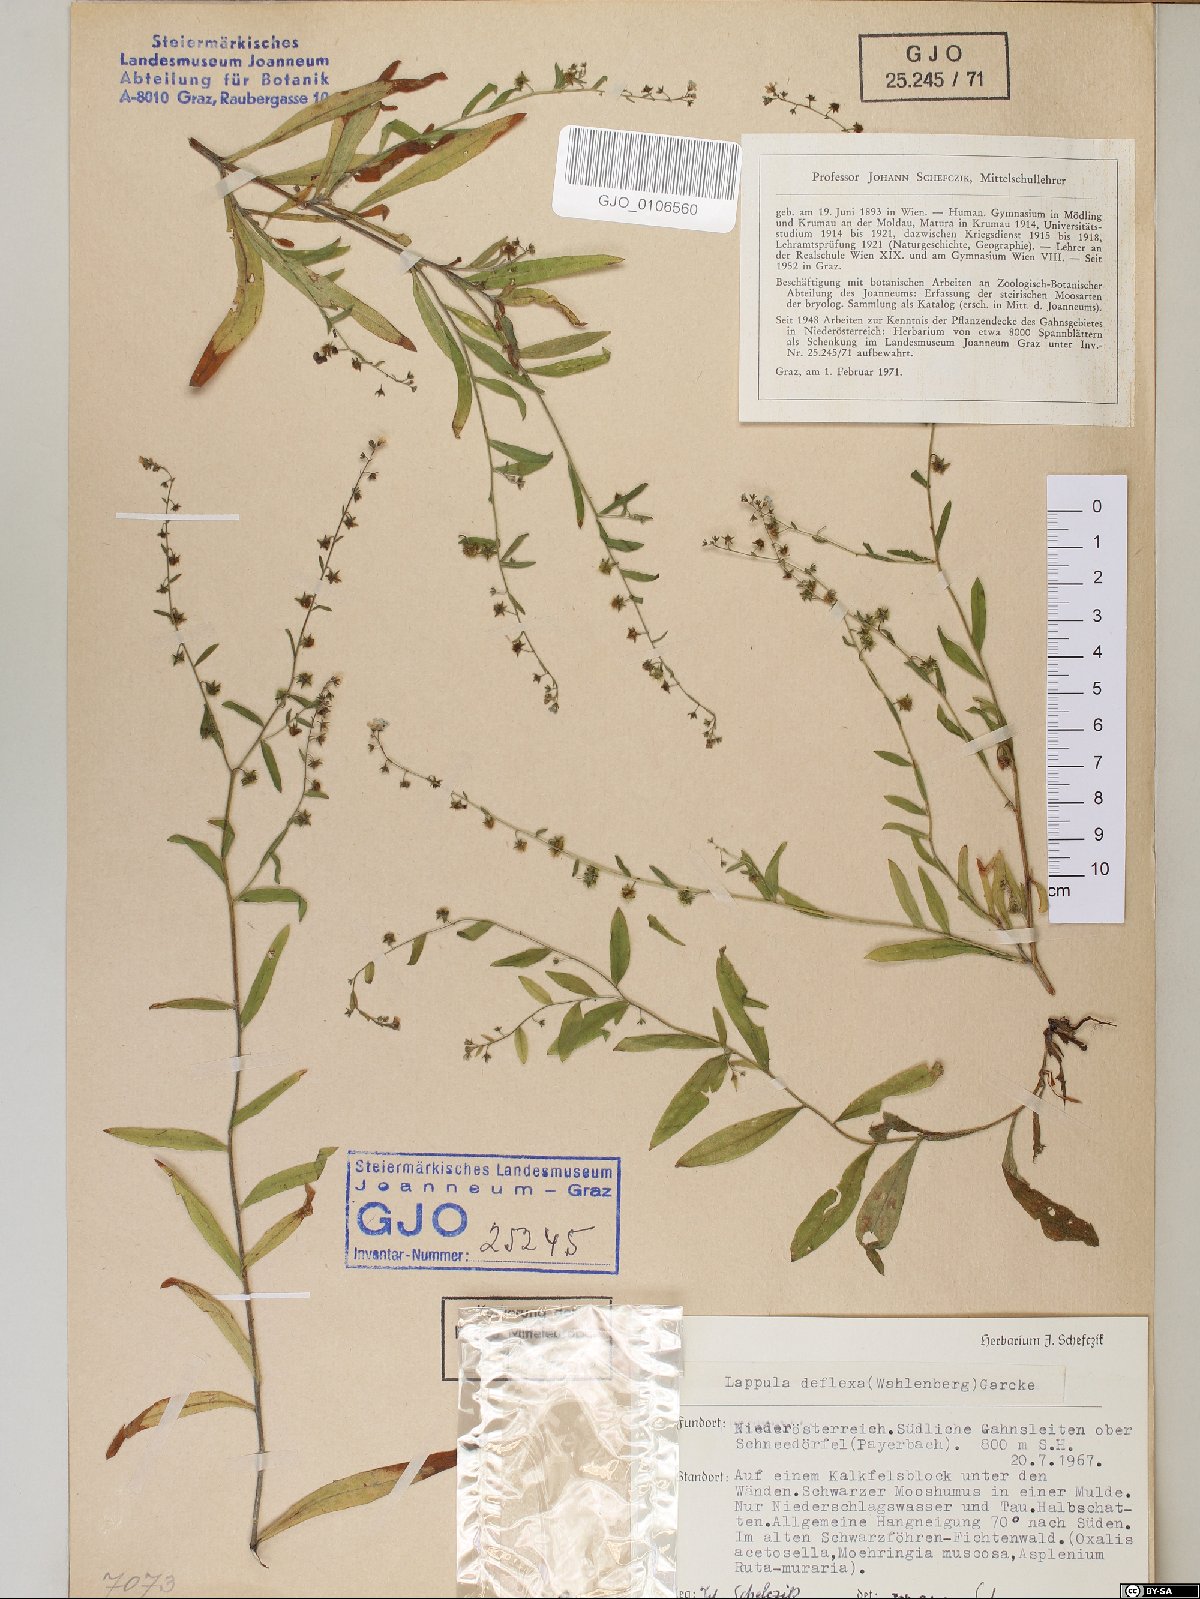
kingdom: Plantae
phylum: Tracheophyta
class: Magnoliopsida
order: Boraginales
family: Boraginaceae
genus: Hackelia
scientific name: Hackelia deflexa
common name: Nodding stickseed
